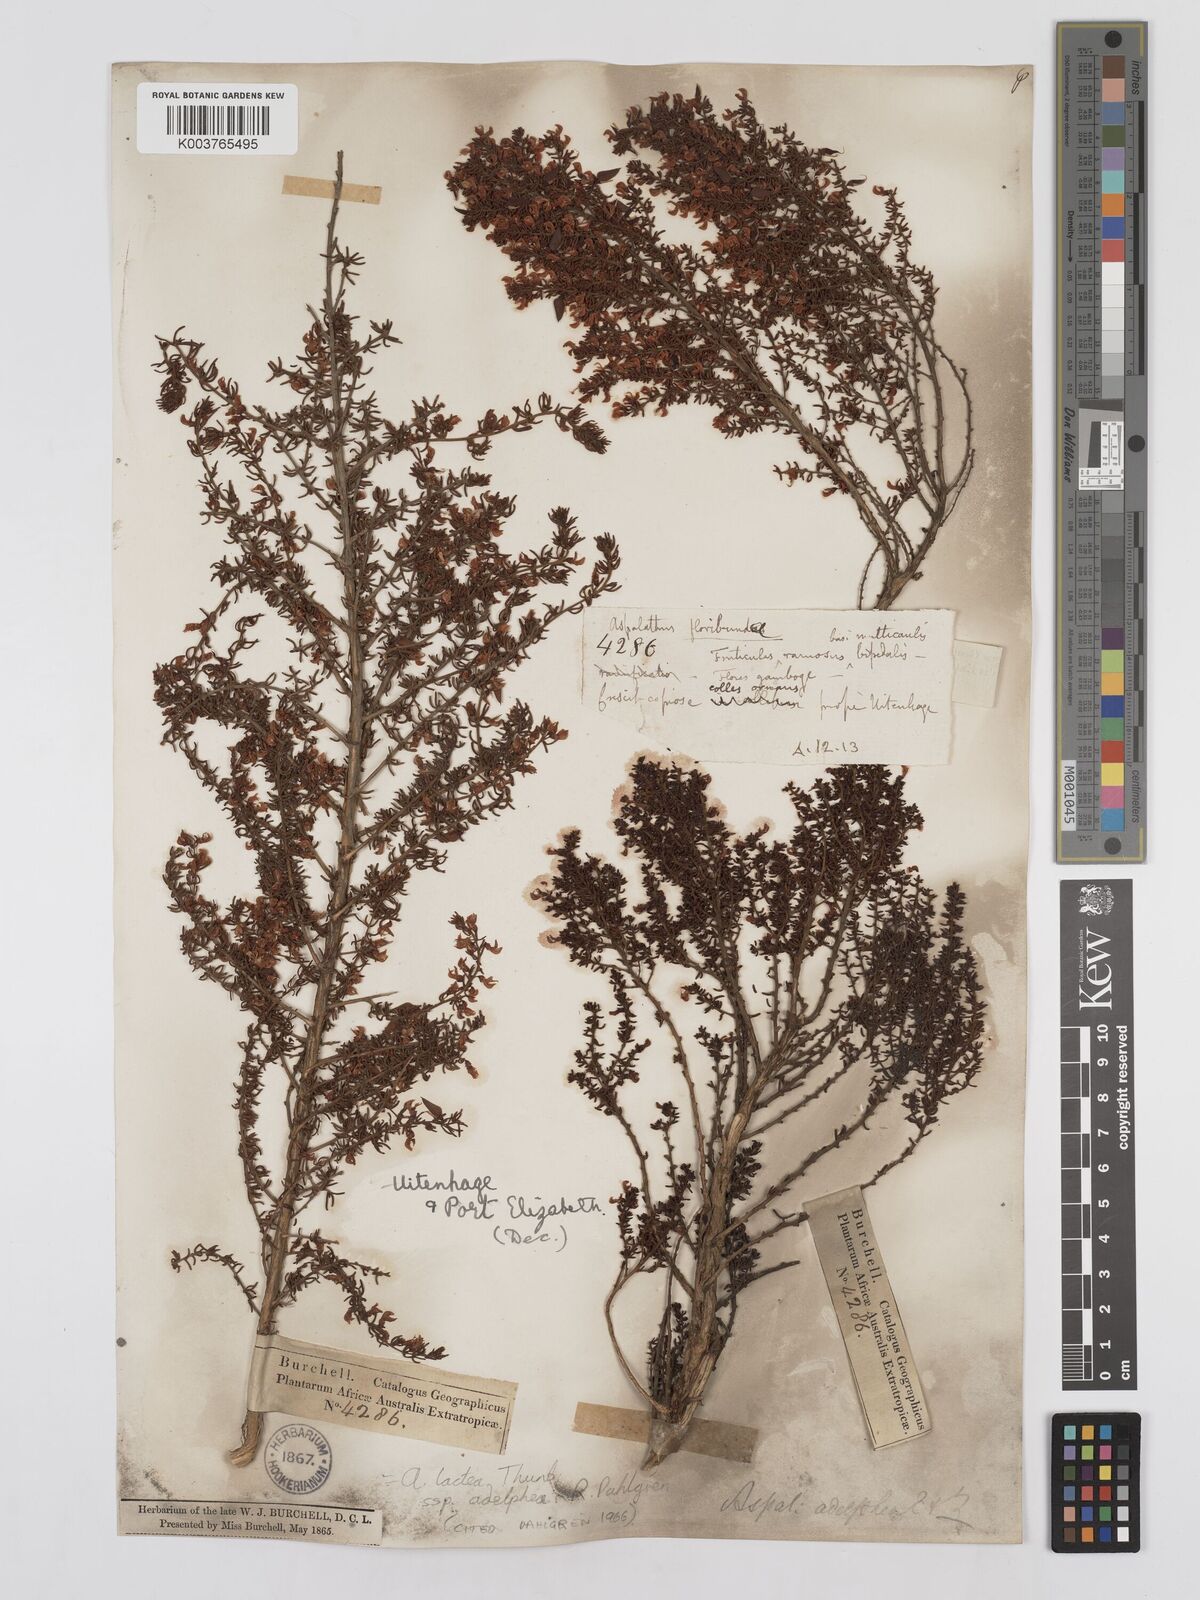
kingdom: Plantae
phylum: Tracheophyta
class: Magnoliopsida
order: Fabales
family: Fabaceae
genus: Aspalathus
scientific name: Aspalathus lactea
